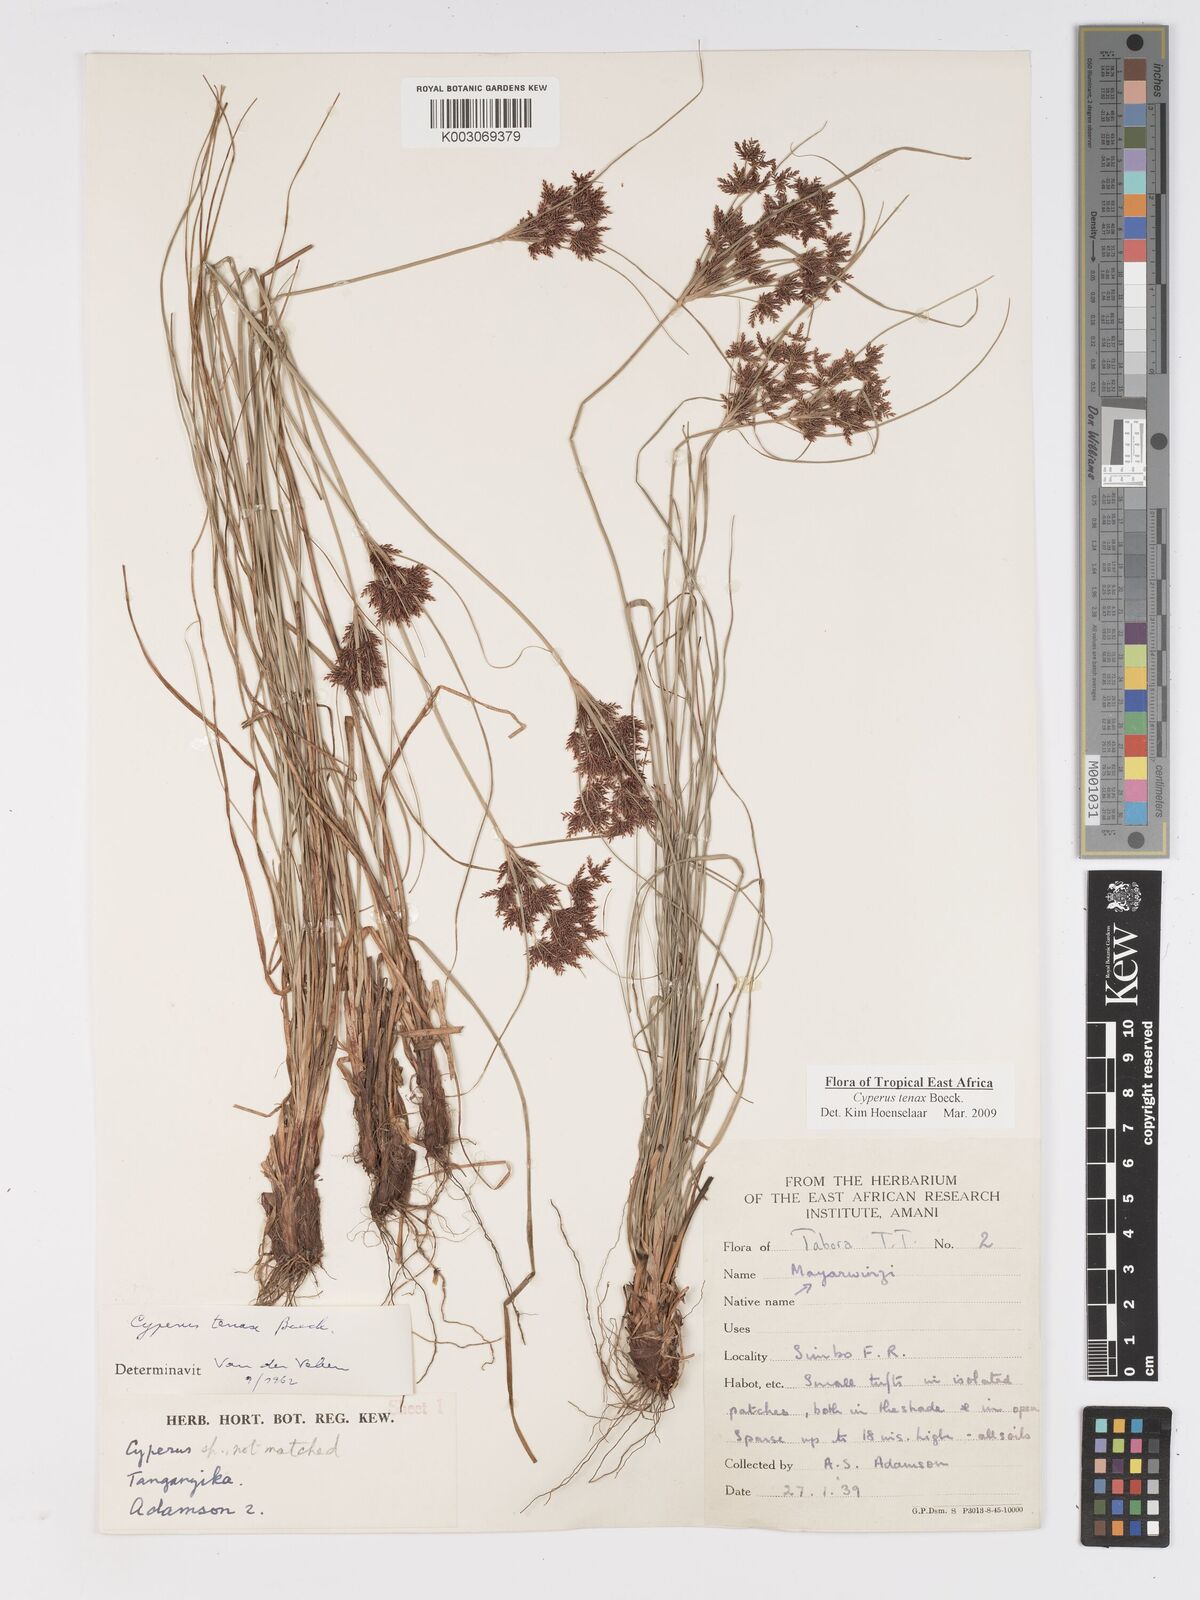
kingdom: Plantae
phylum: Tracheophyta
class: Liliopsida
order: Poales
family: Cyperaceae
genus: Cyperus
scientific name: Cyperus tenax
